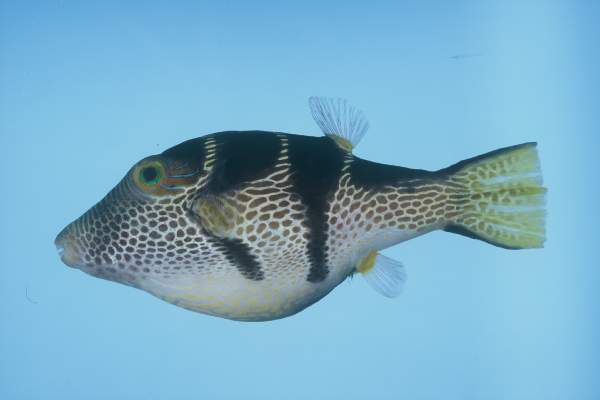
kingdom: Animalia
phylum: Chordata
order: Tetraodontiformes
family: Tetraodontidae
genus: Canthigaster
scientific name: Canthigaster valentini
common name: Banded toby
